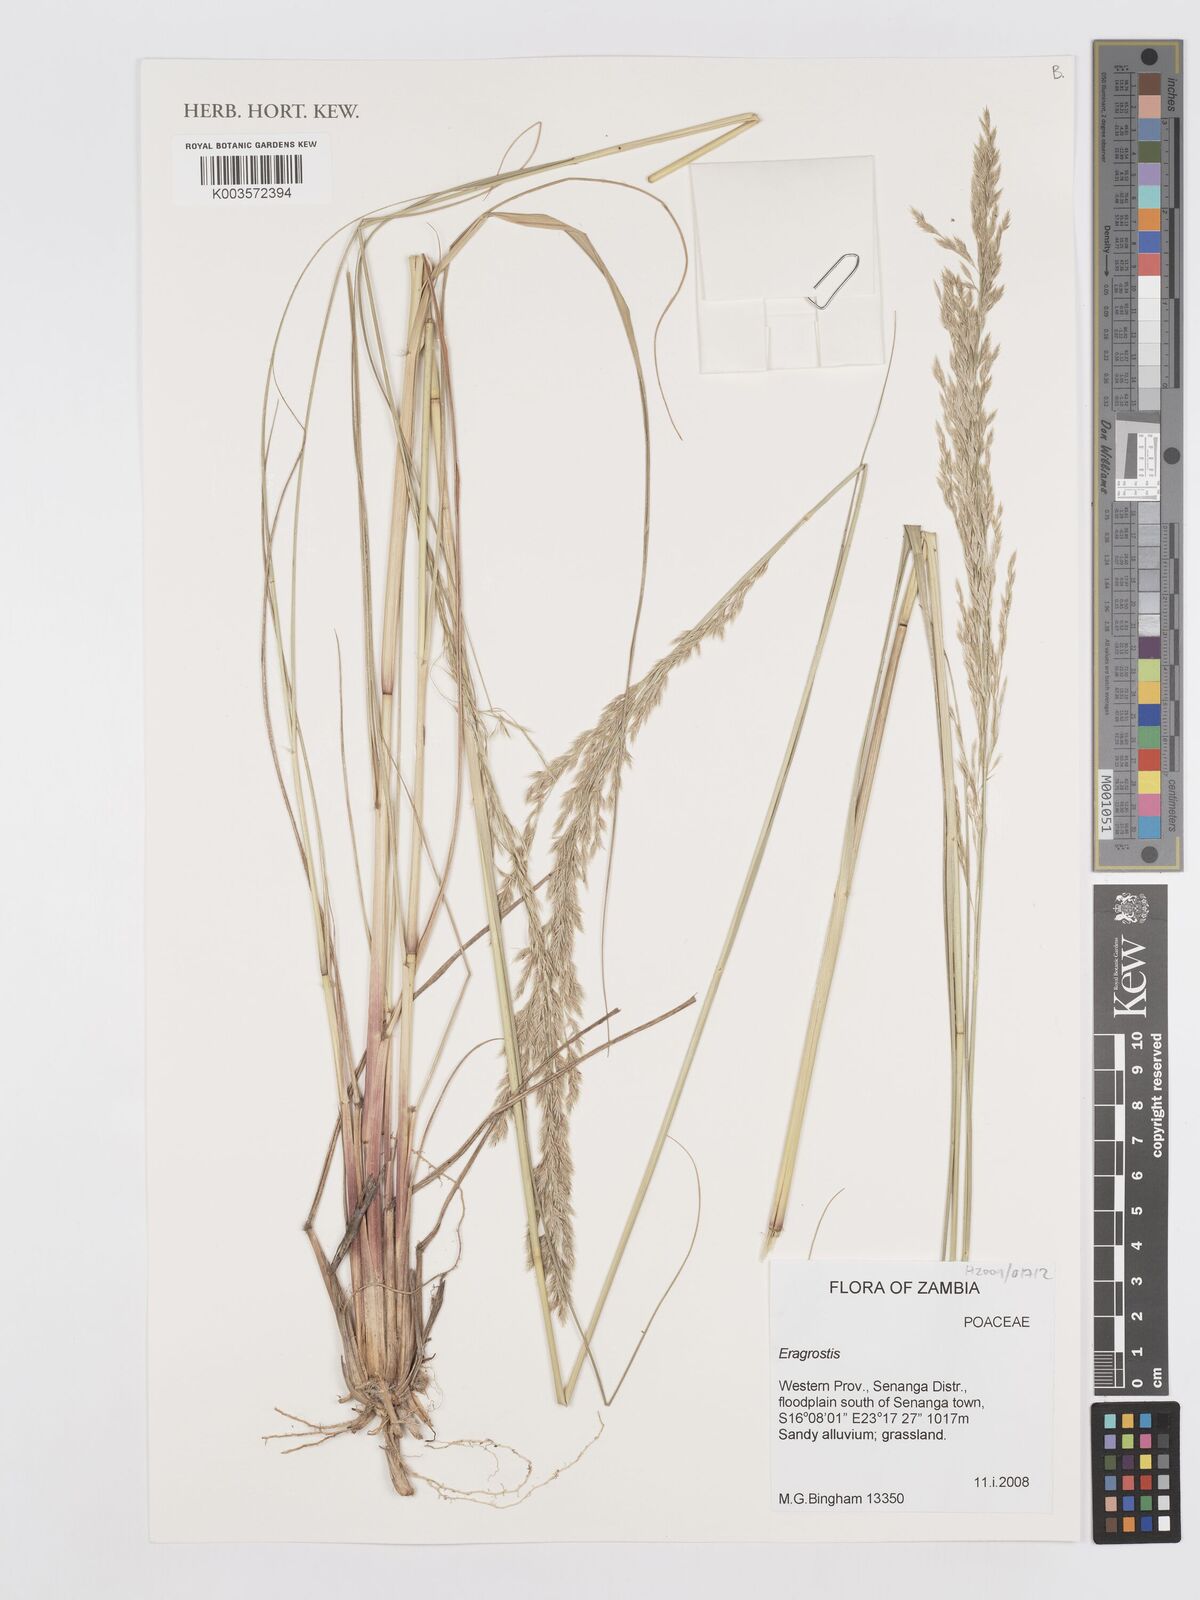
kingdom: Plantae
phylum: Tracheophyta
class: Liliopsida
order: Poales
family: Poaceae
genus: Eragrostis
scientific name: Eragrostis
